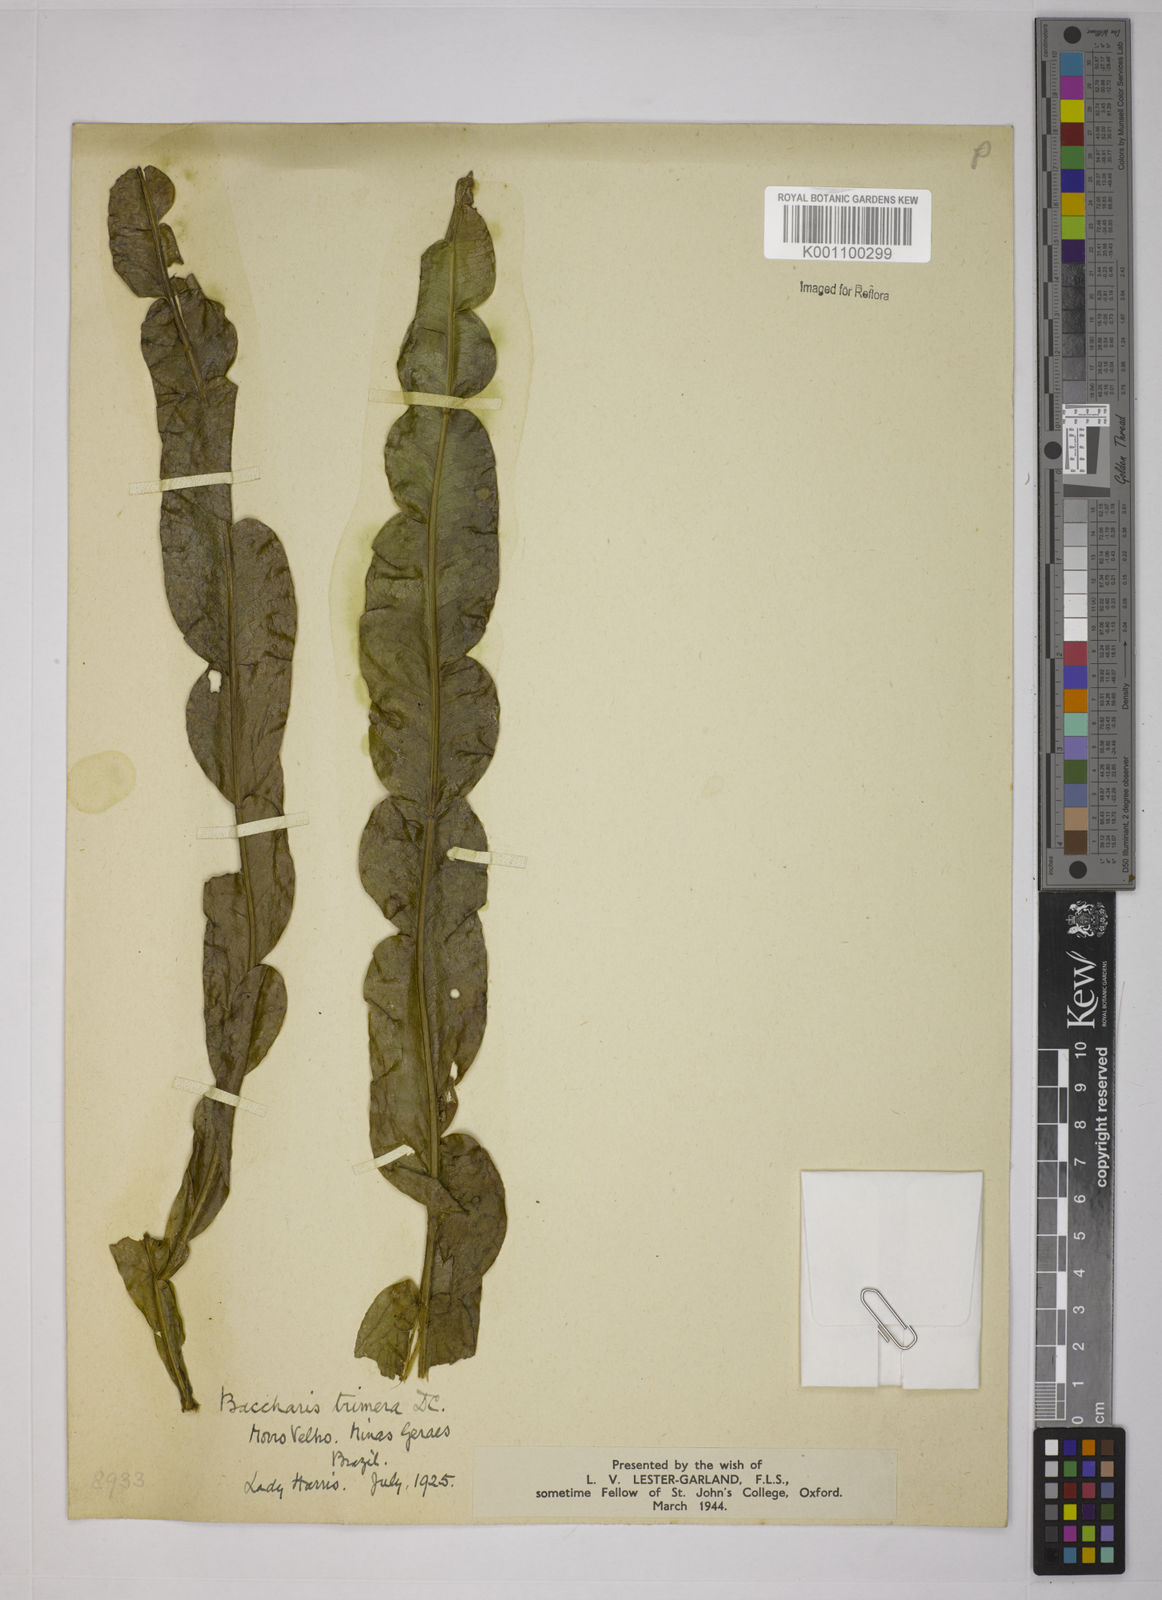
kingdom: Plantae
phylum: Tracheophyta
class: Magnoliopsida
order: Asterales
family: Asteraceae
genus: Baccharis
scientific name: Baccharis trimera
